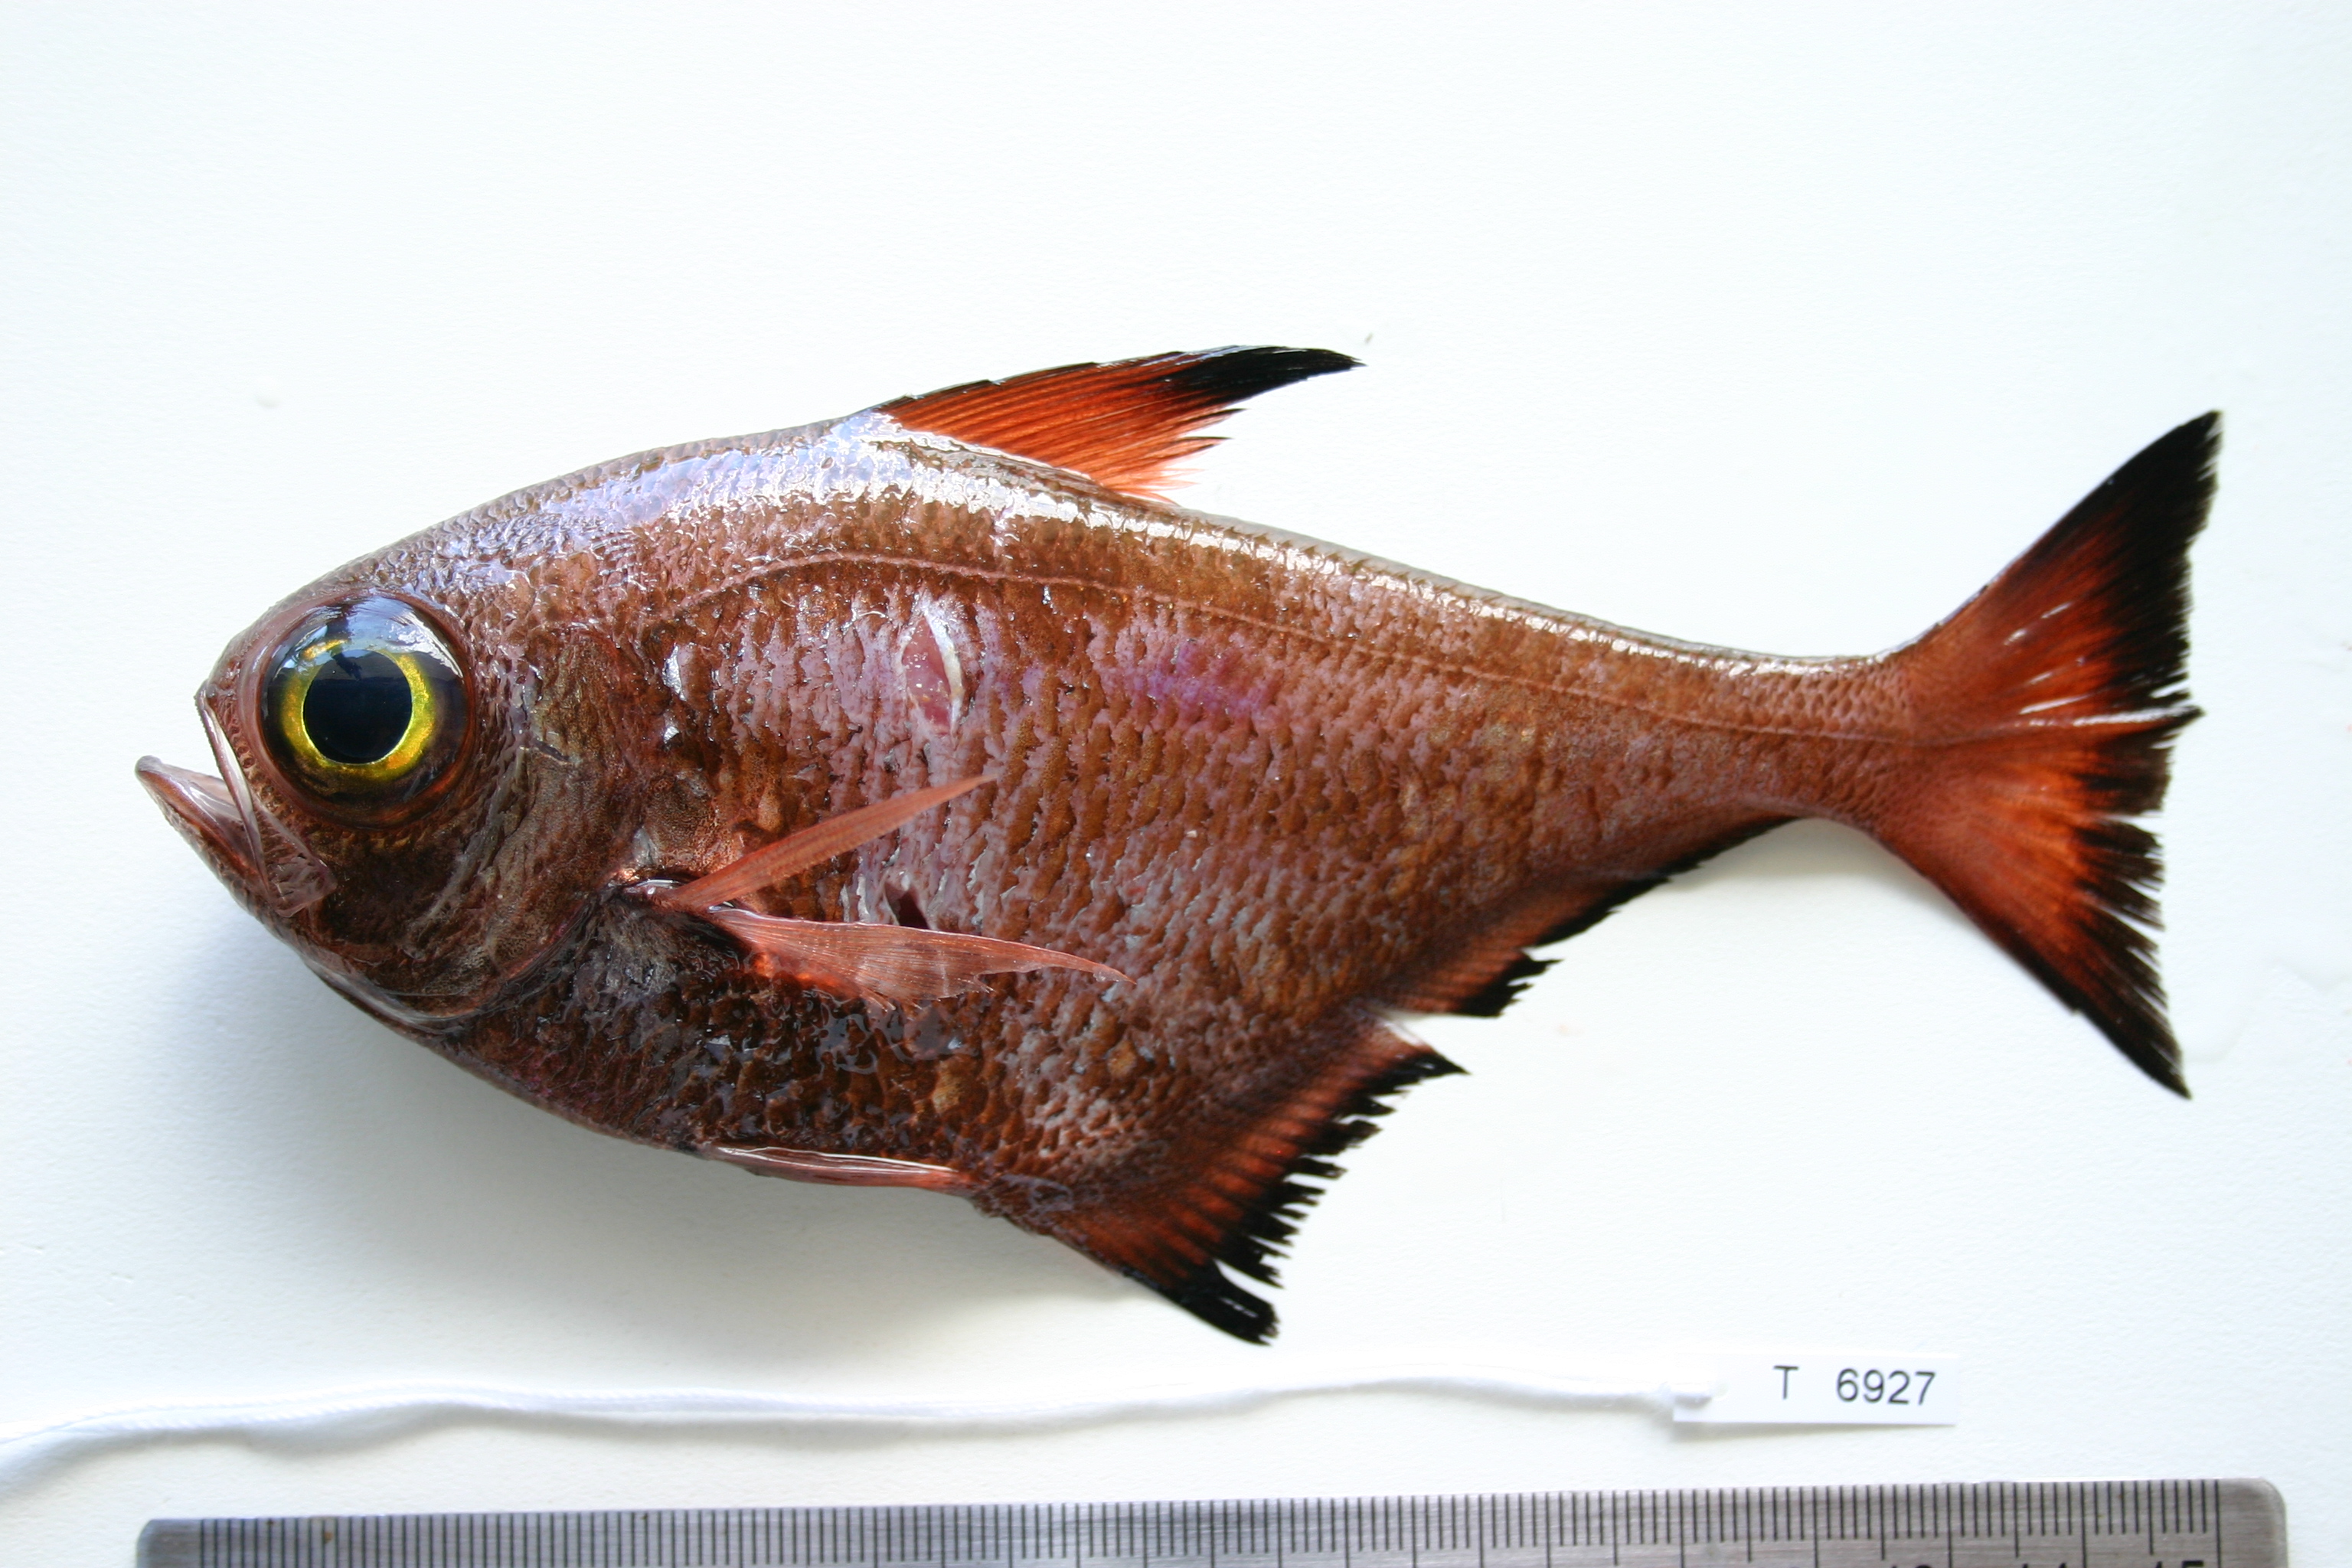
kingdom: Animalia
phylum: Chordata
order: Perciformes
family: Pempheridae
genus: Pempheris
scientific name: Pempheris adusta
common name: Curved bullseye
